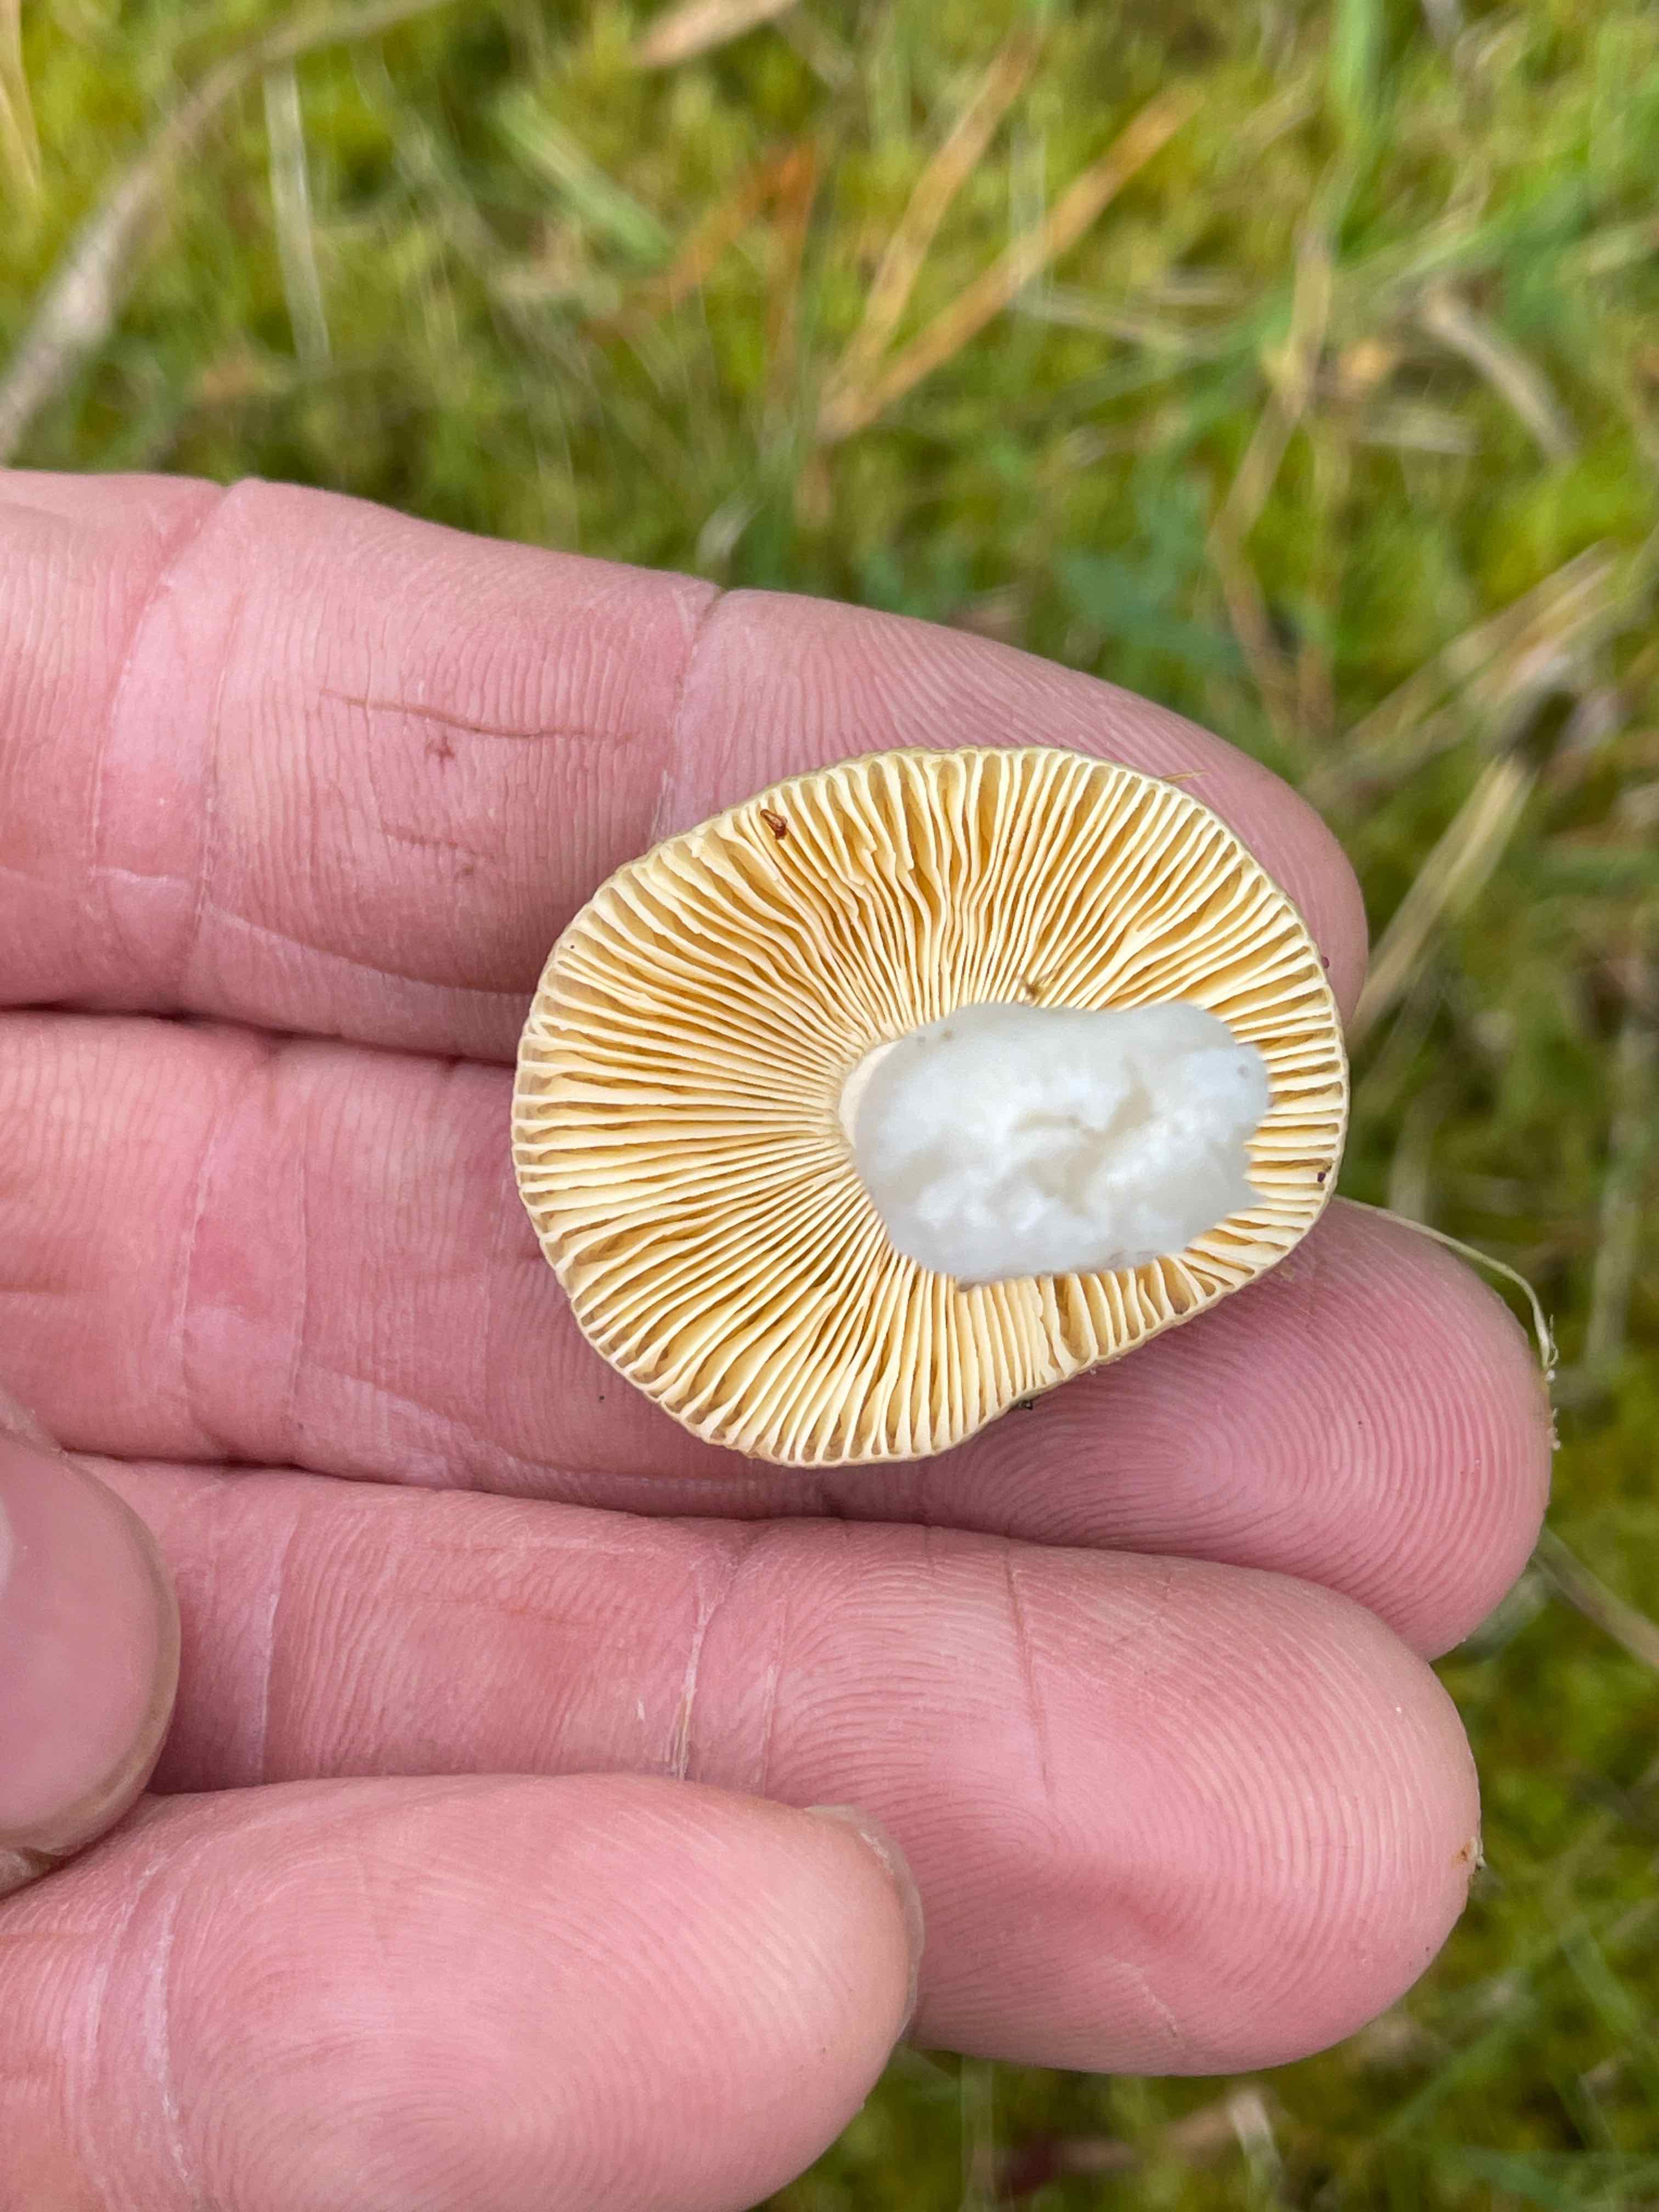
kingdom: Fungi
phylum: Basidiomycota
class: Agaricomycetes
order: Russulales
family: Russulaceae
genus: Russula
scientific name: Russula cessans
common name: fyrre-skørhat
